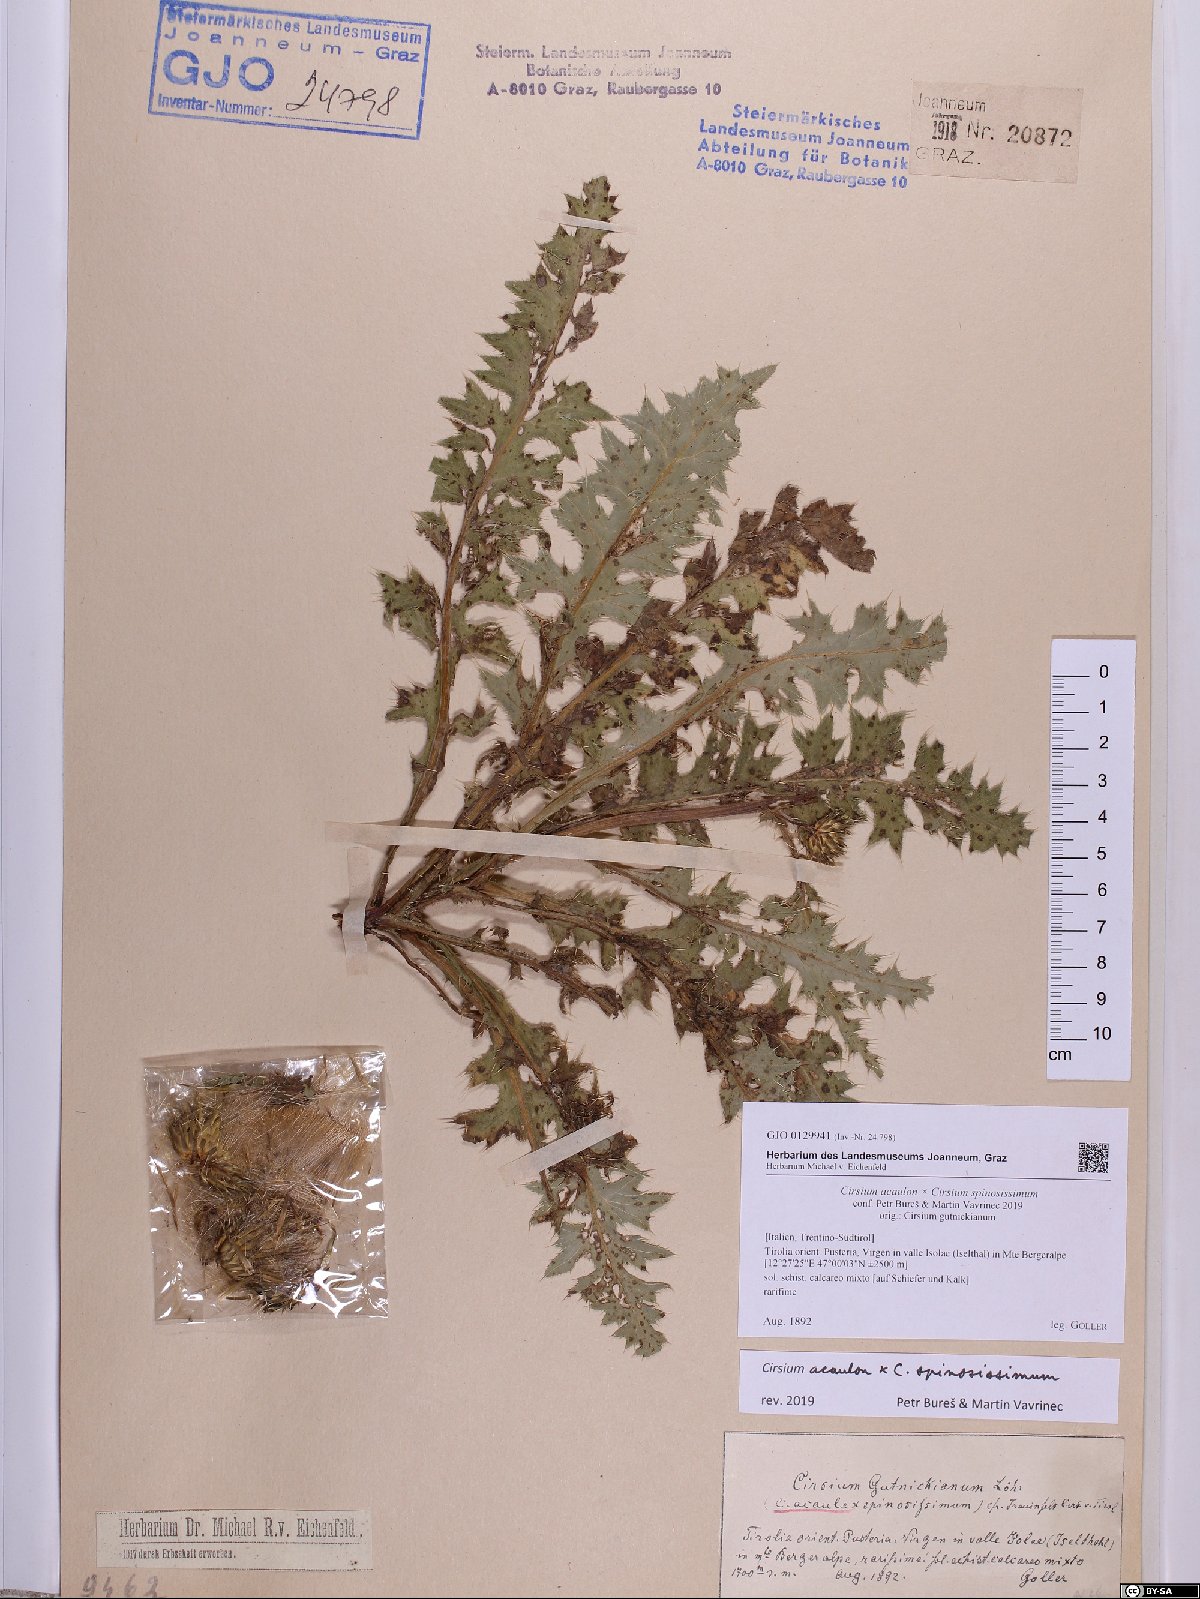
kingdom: Plantae
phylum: Tracheophyta
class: Magnoliopsida
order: Asterales
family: Asteraceae
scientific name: Asteraceae
